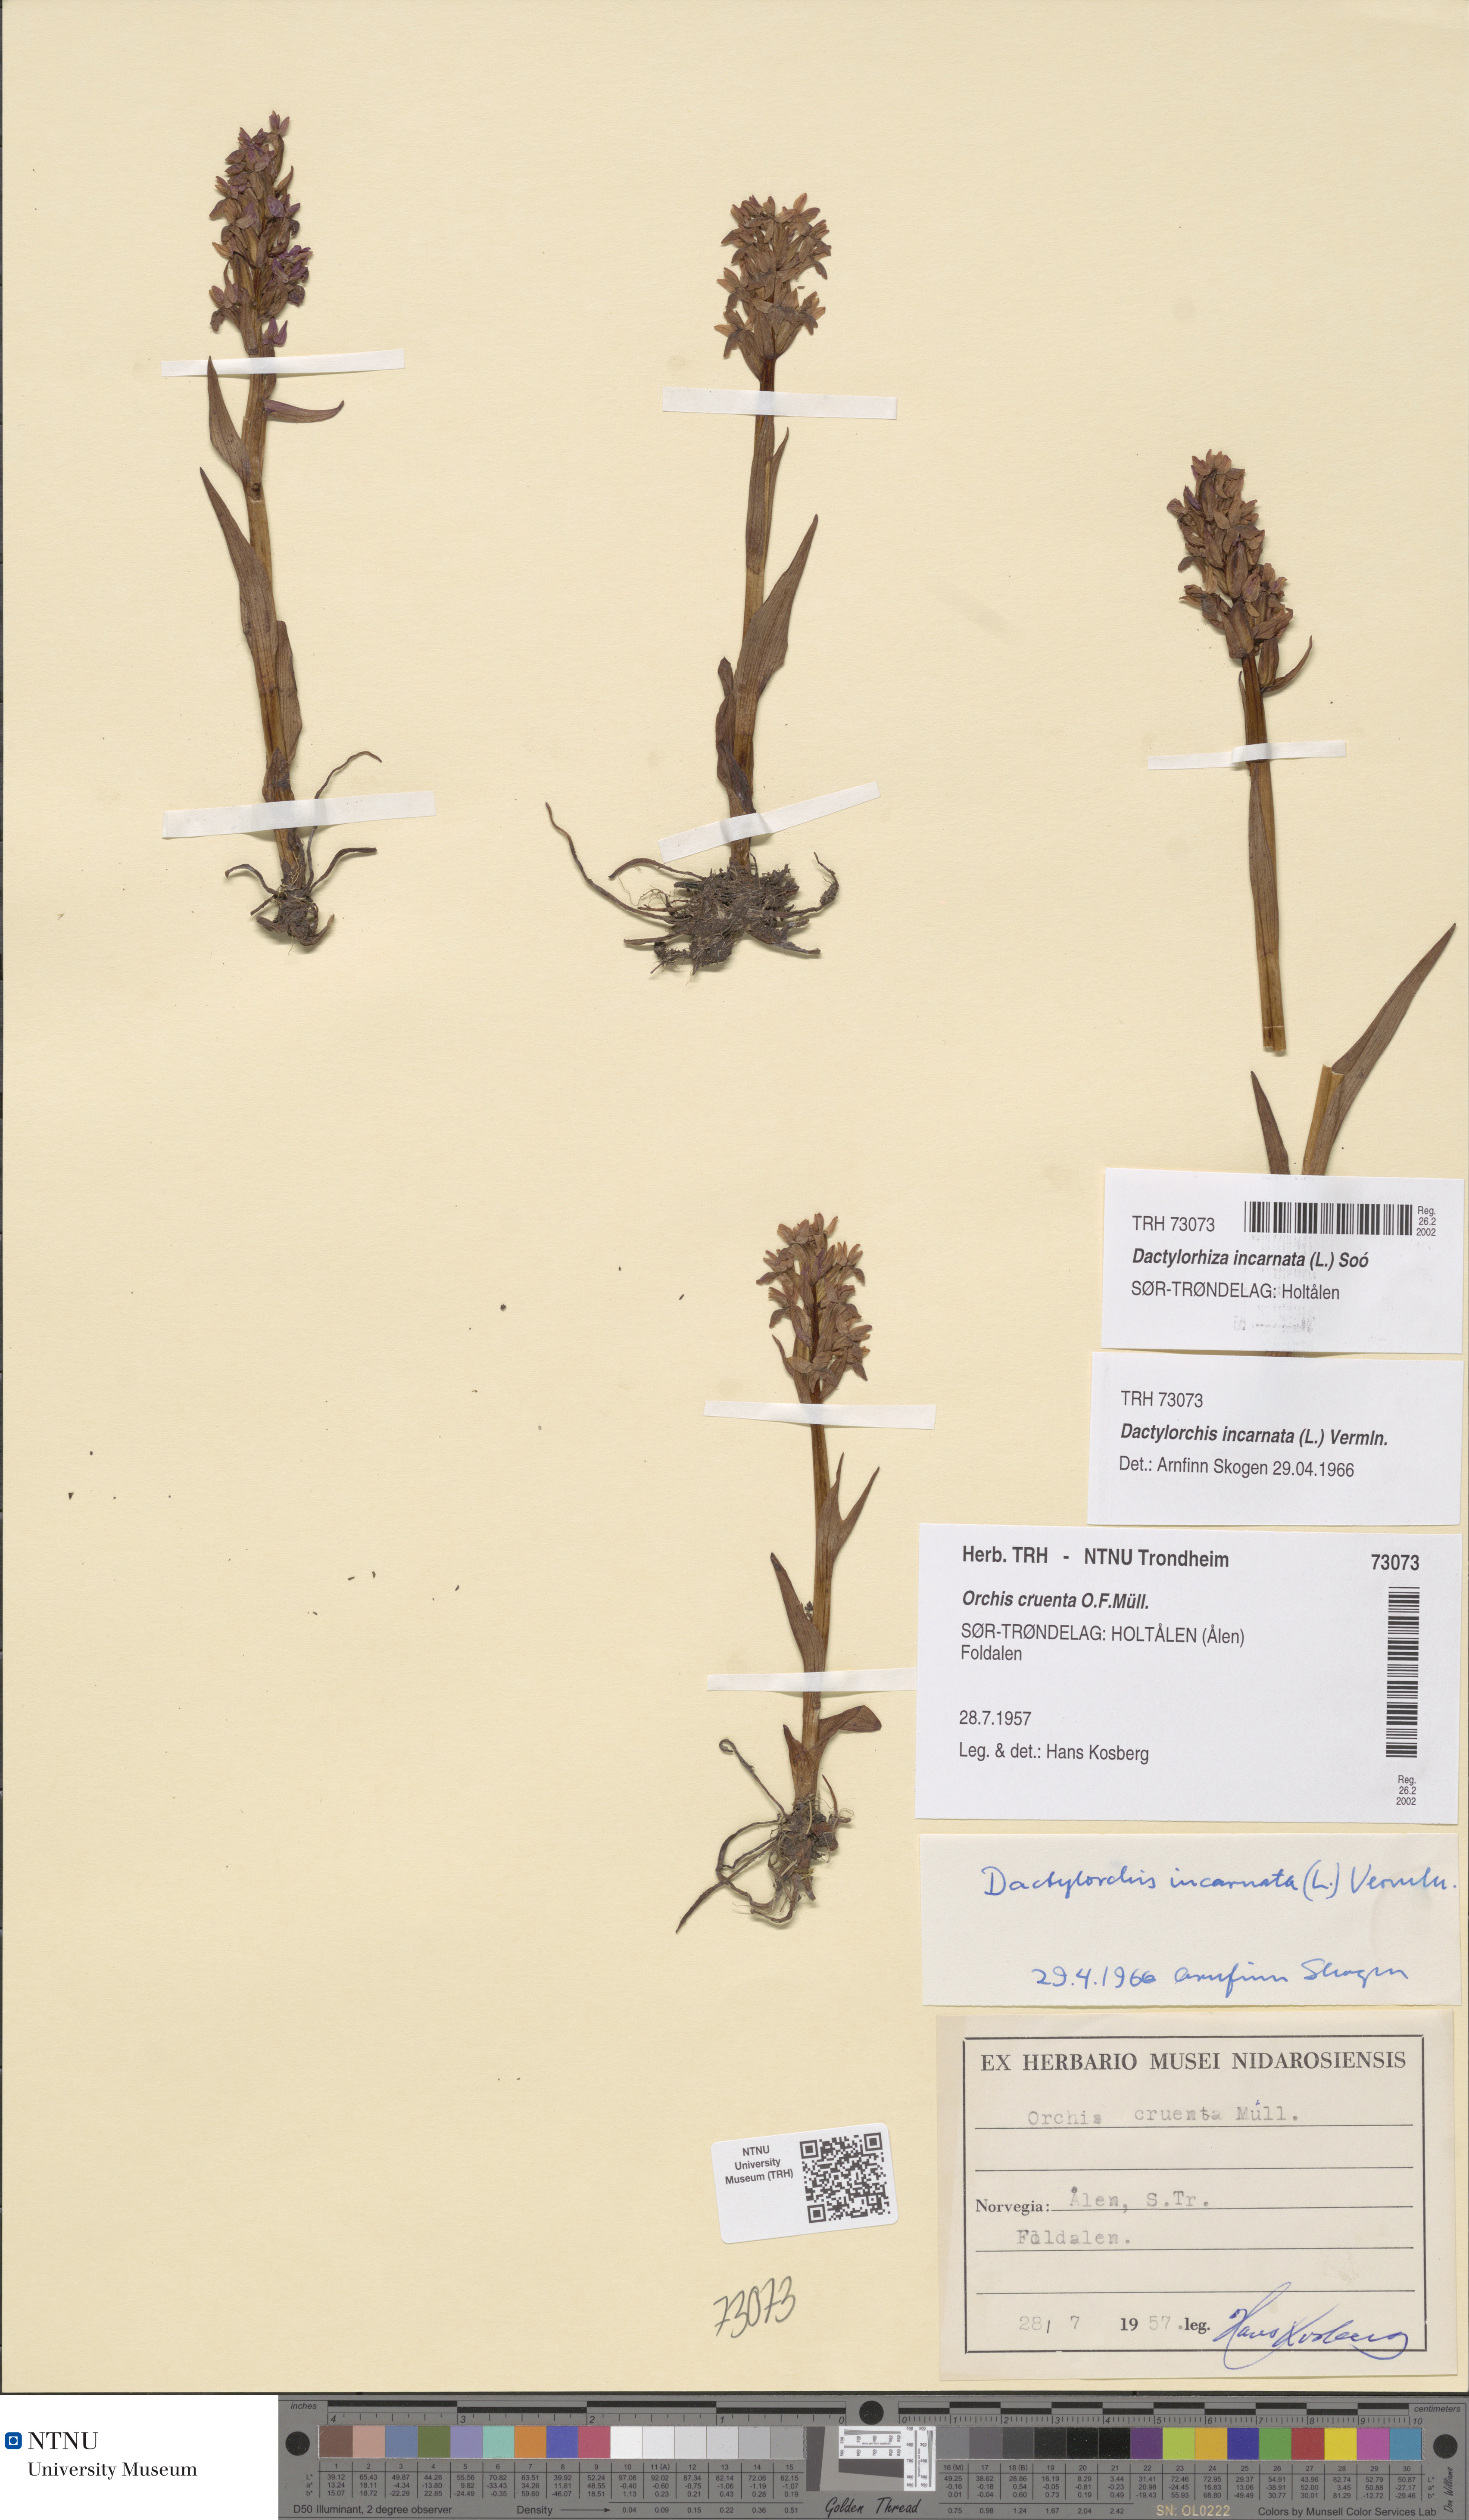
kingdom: Plantae
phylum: Tracheophyta
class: Liliopsida
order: Asparagales
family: Orchidaceae
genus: Dactylorhiza
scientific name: Dactylorhiza incarnata
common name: Early marsh-orchid
